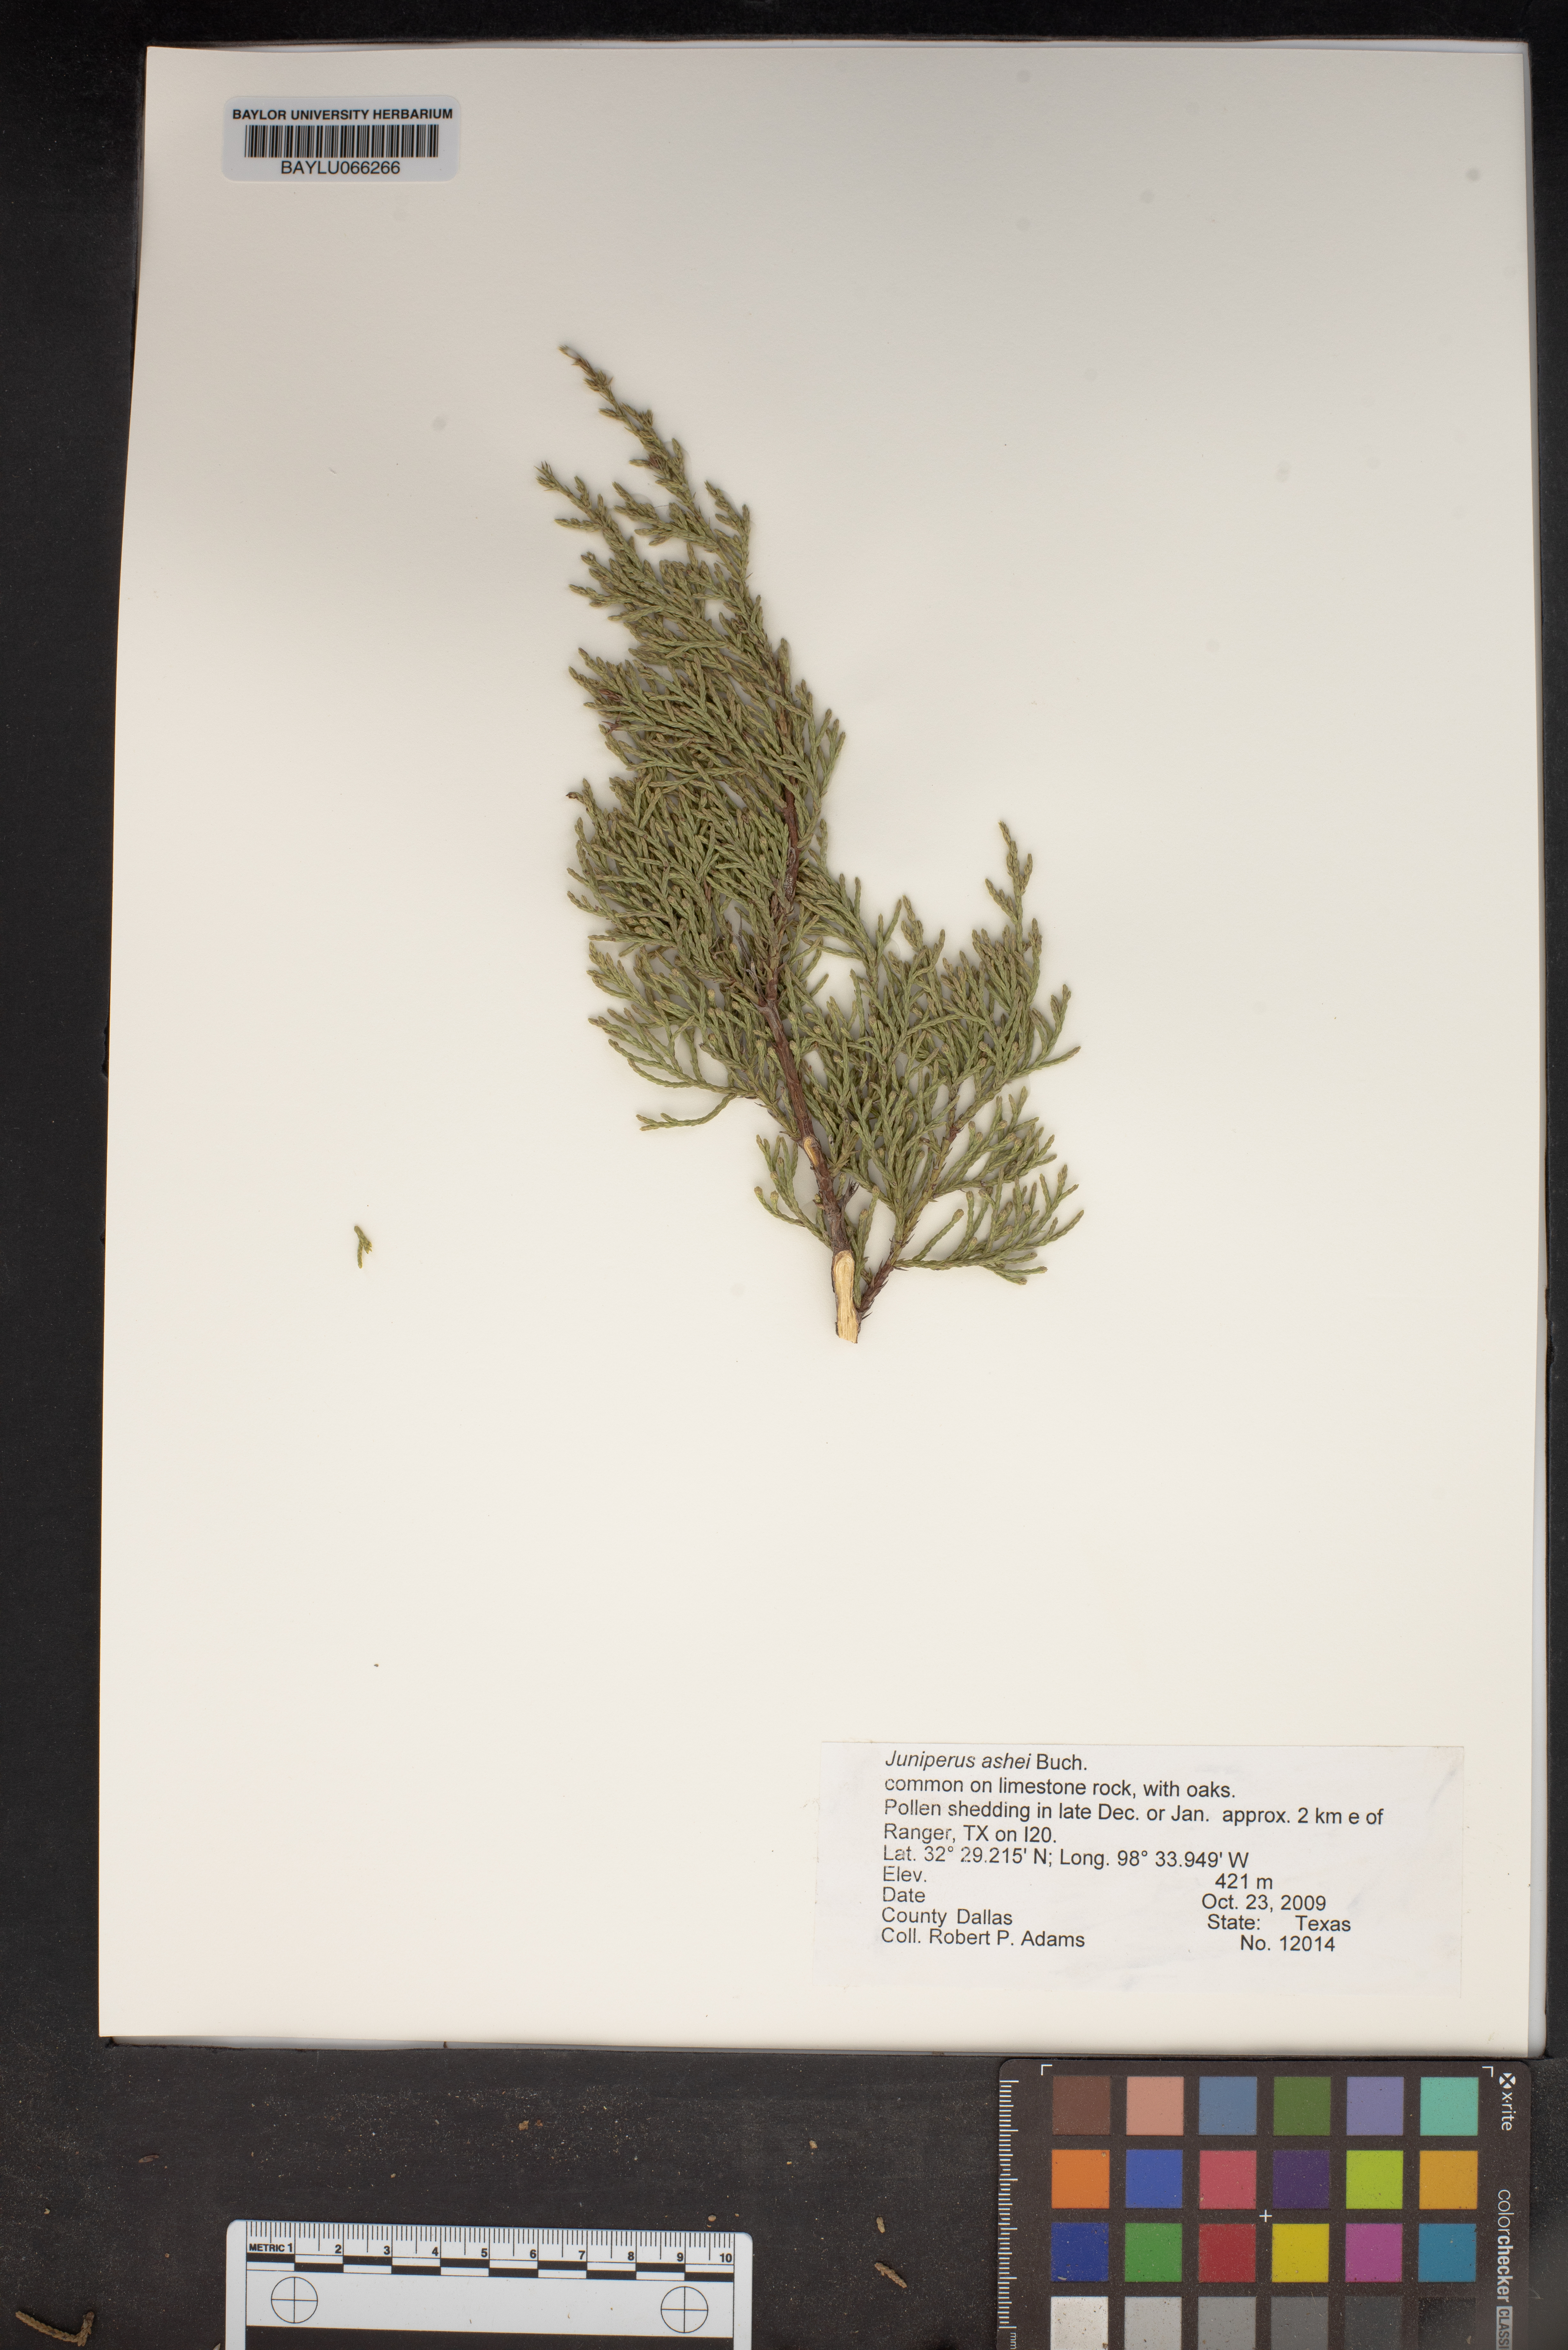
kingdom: Plantae
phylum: Tracheophyta
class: Pinopsida
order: Pinales
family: Cupressaceae
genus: Juniperus
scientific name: Juniperus ashei
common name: Mexican juniper
